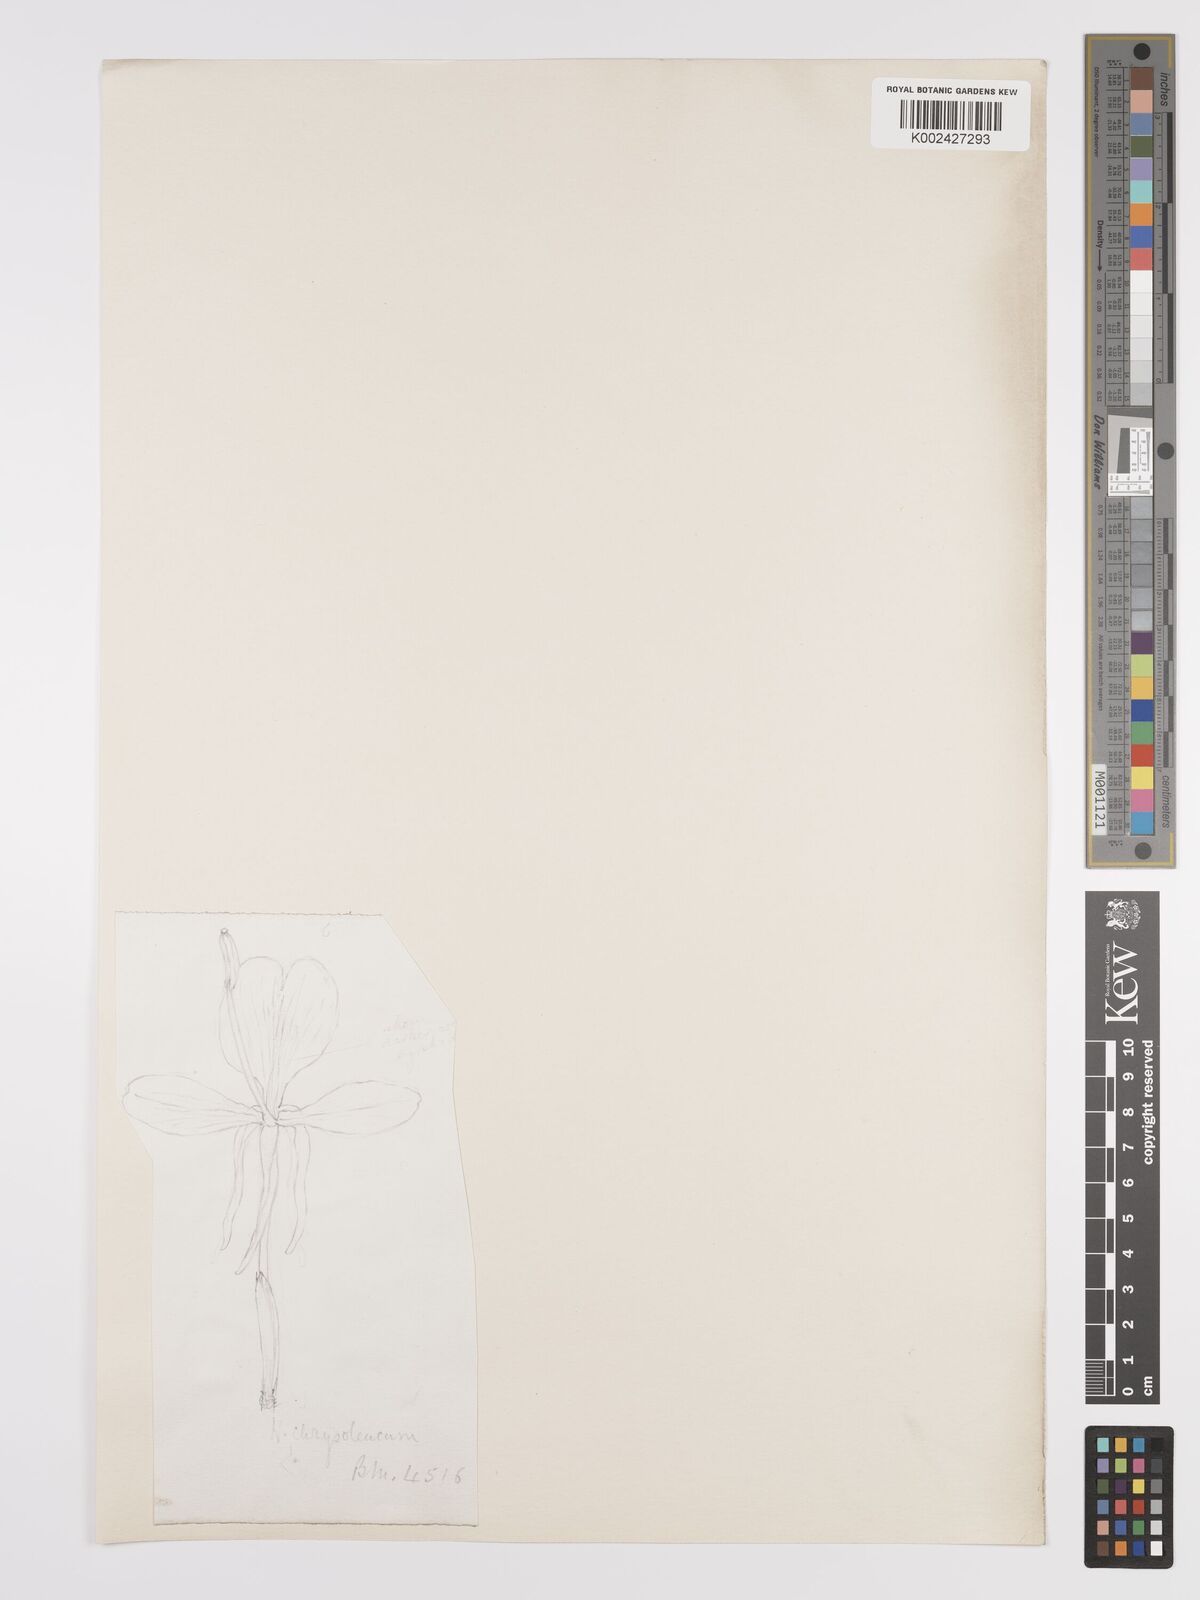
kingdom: Plantae
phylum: Tracheophyta
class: Liliopsida
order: Zingiberales
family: Zingiberaceae
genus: Hedychium
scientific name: Hedychium coronarium
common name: White garland-lily
